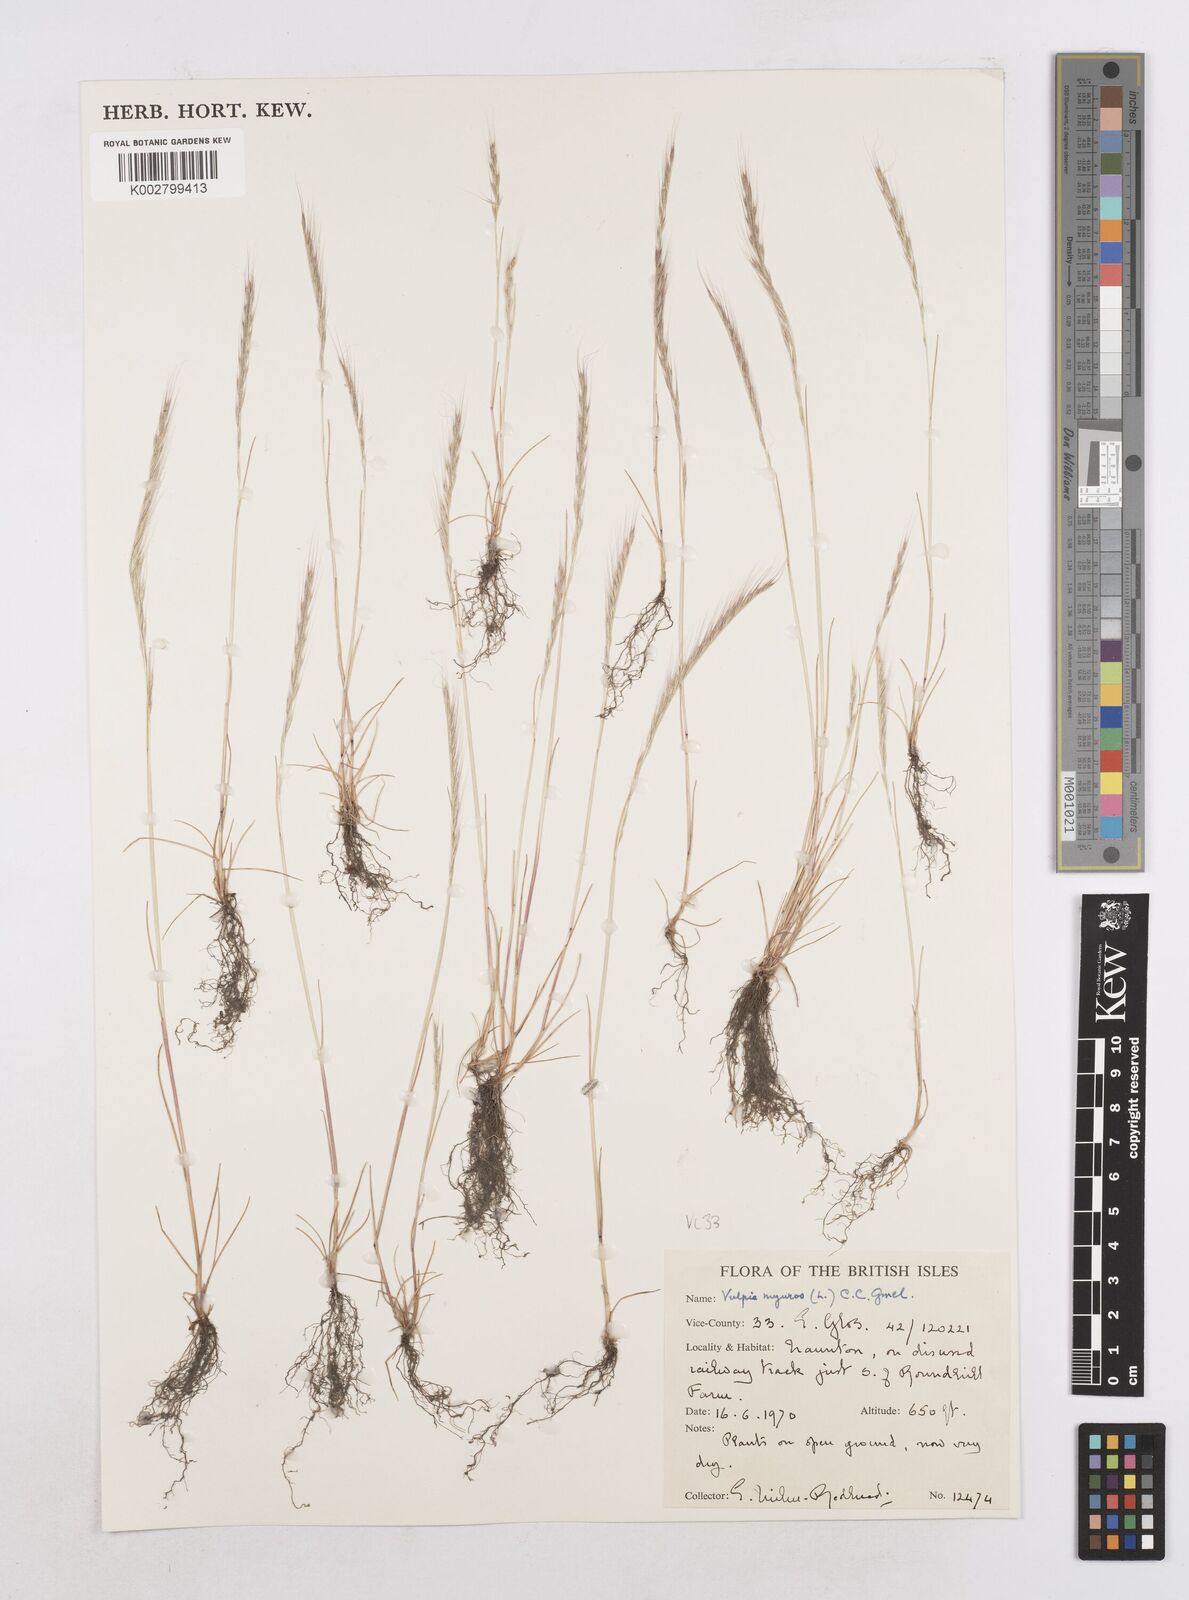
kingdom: Plantae
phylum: Tracheophyta
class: Liliopsida
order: Poales
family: Poaceae
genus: Festuca
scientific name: Festuca myuros
